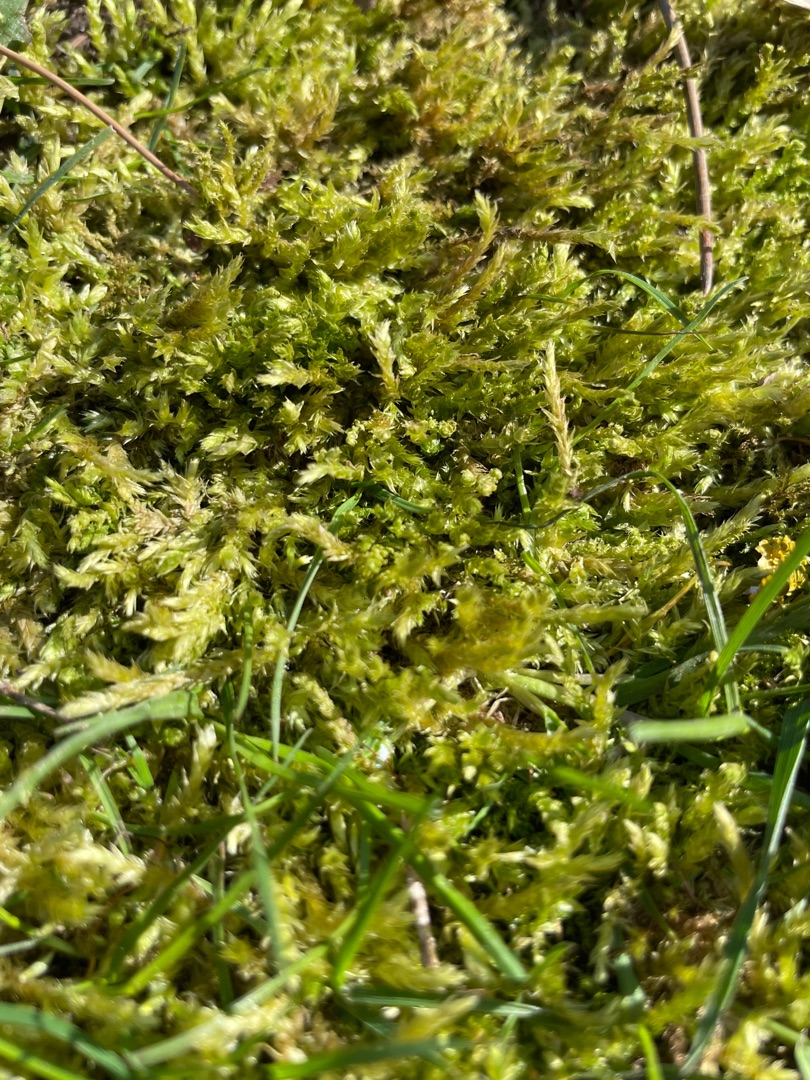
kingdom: Plantae
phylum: Bryophyta
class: Bryopsida
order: Hypnales
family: Brachytheciaceae
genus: Brachythecium
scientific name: Brachythecium rutabulum
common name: Almindelig kortkapsel
